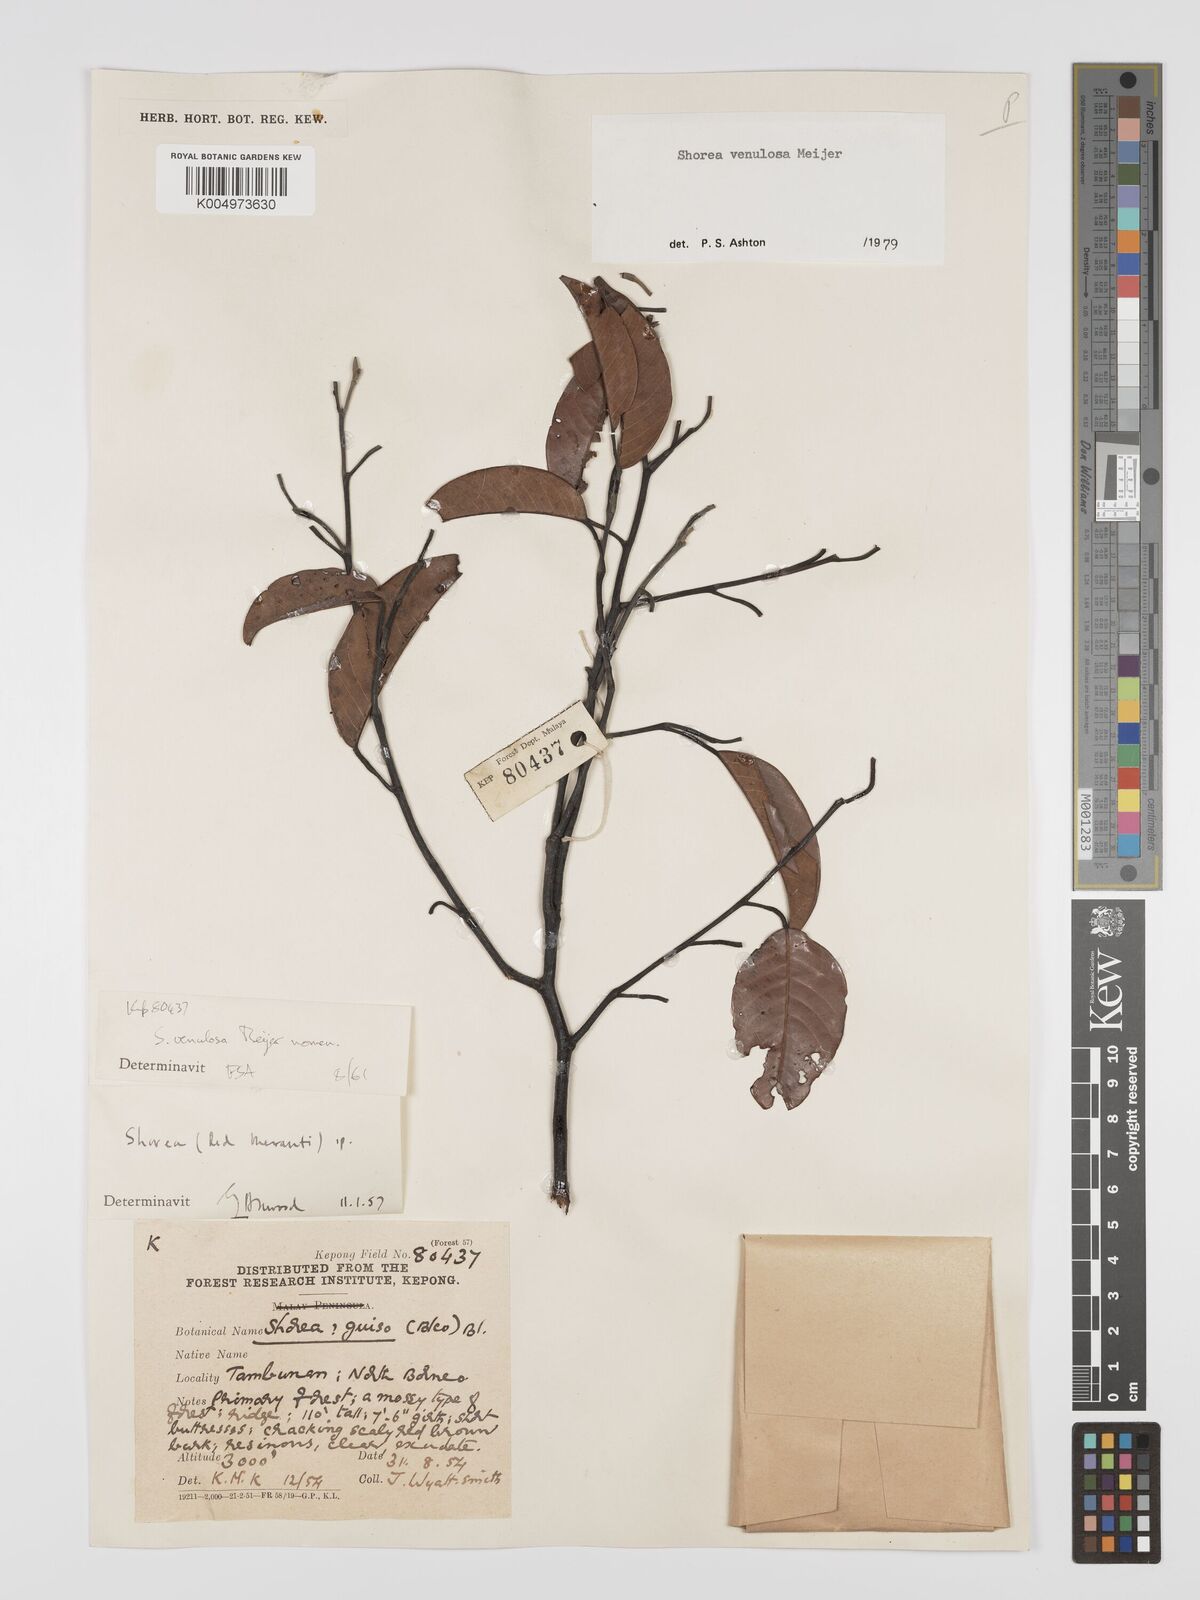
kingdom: Plantae
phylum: Tracheophyta
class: Magnoliopsida
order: Malvales
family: Dipterocarpaceae
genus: Shorea
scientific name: Shorea venulosa
